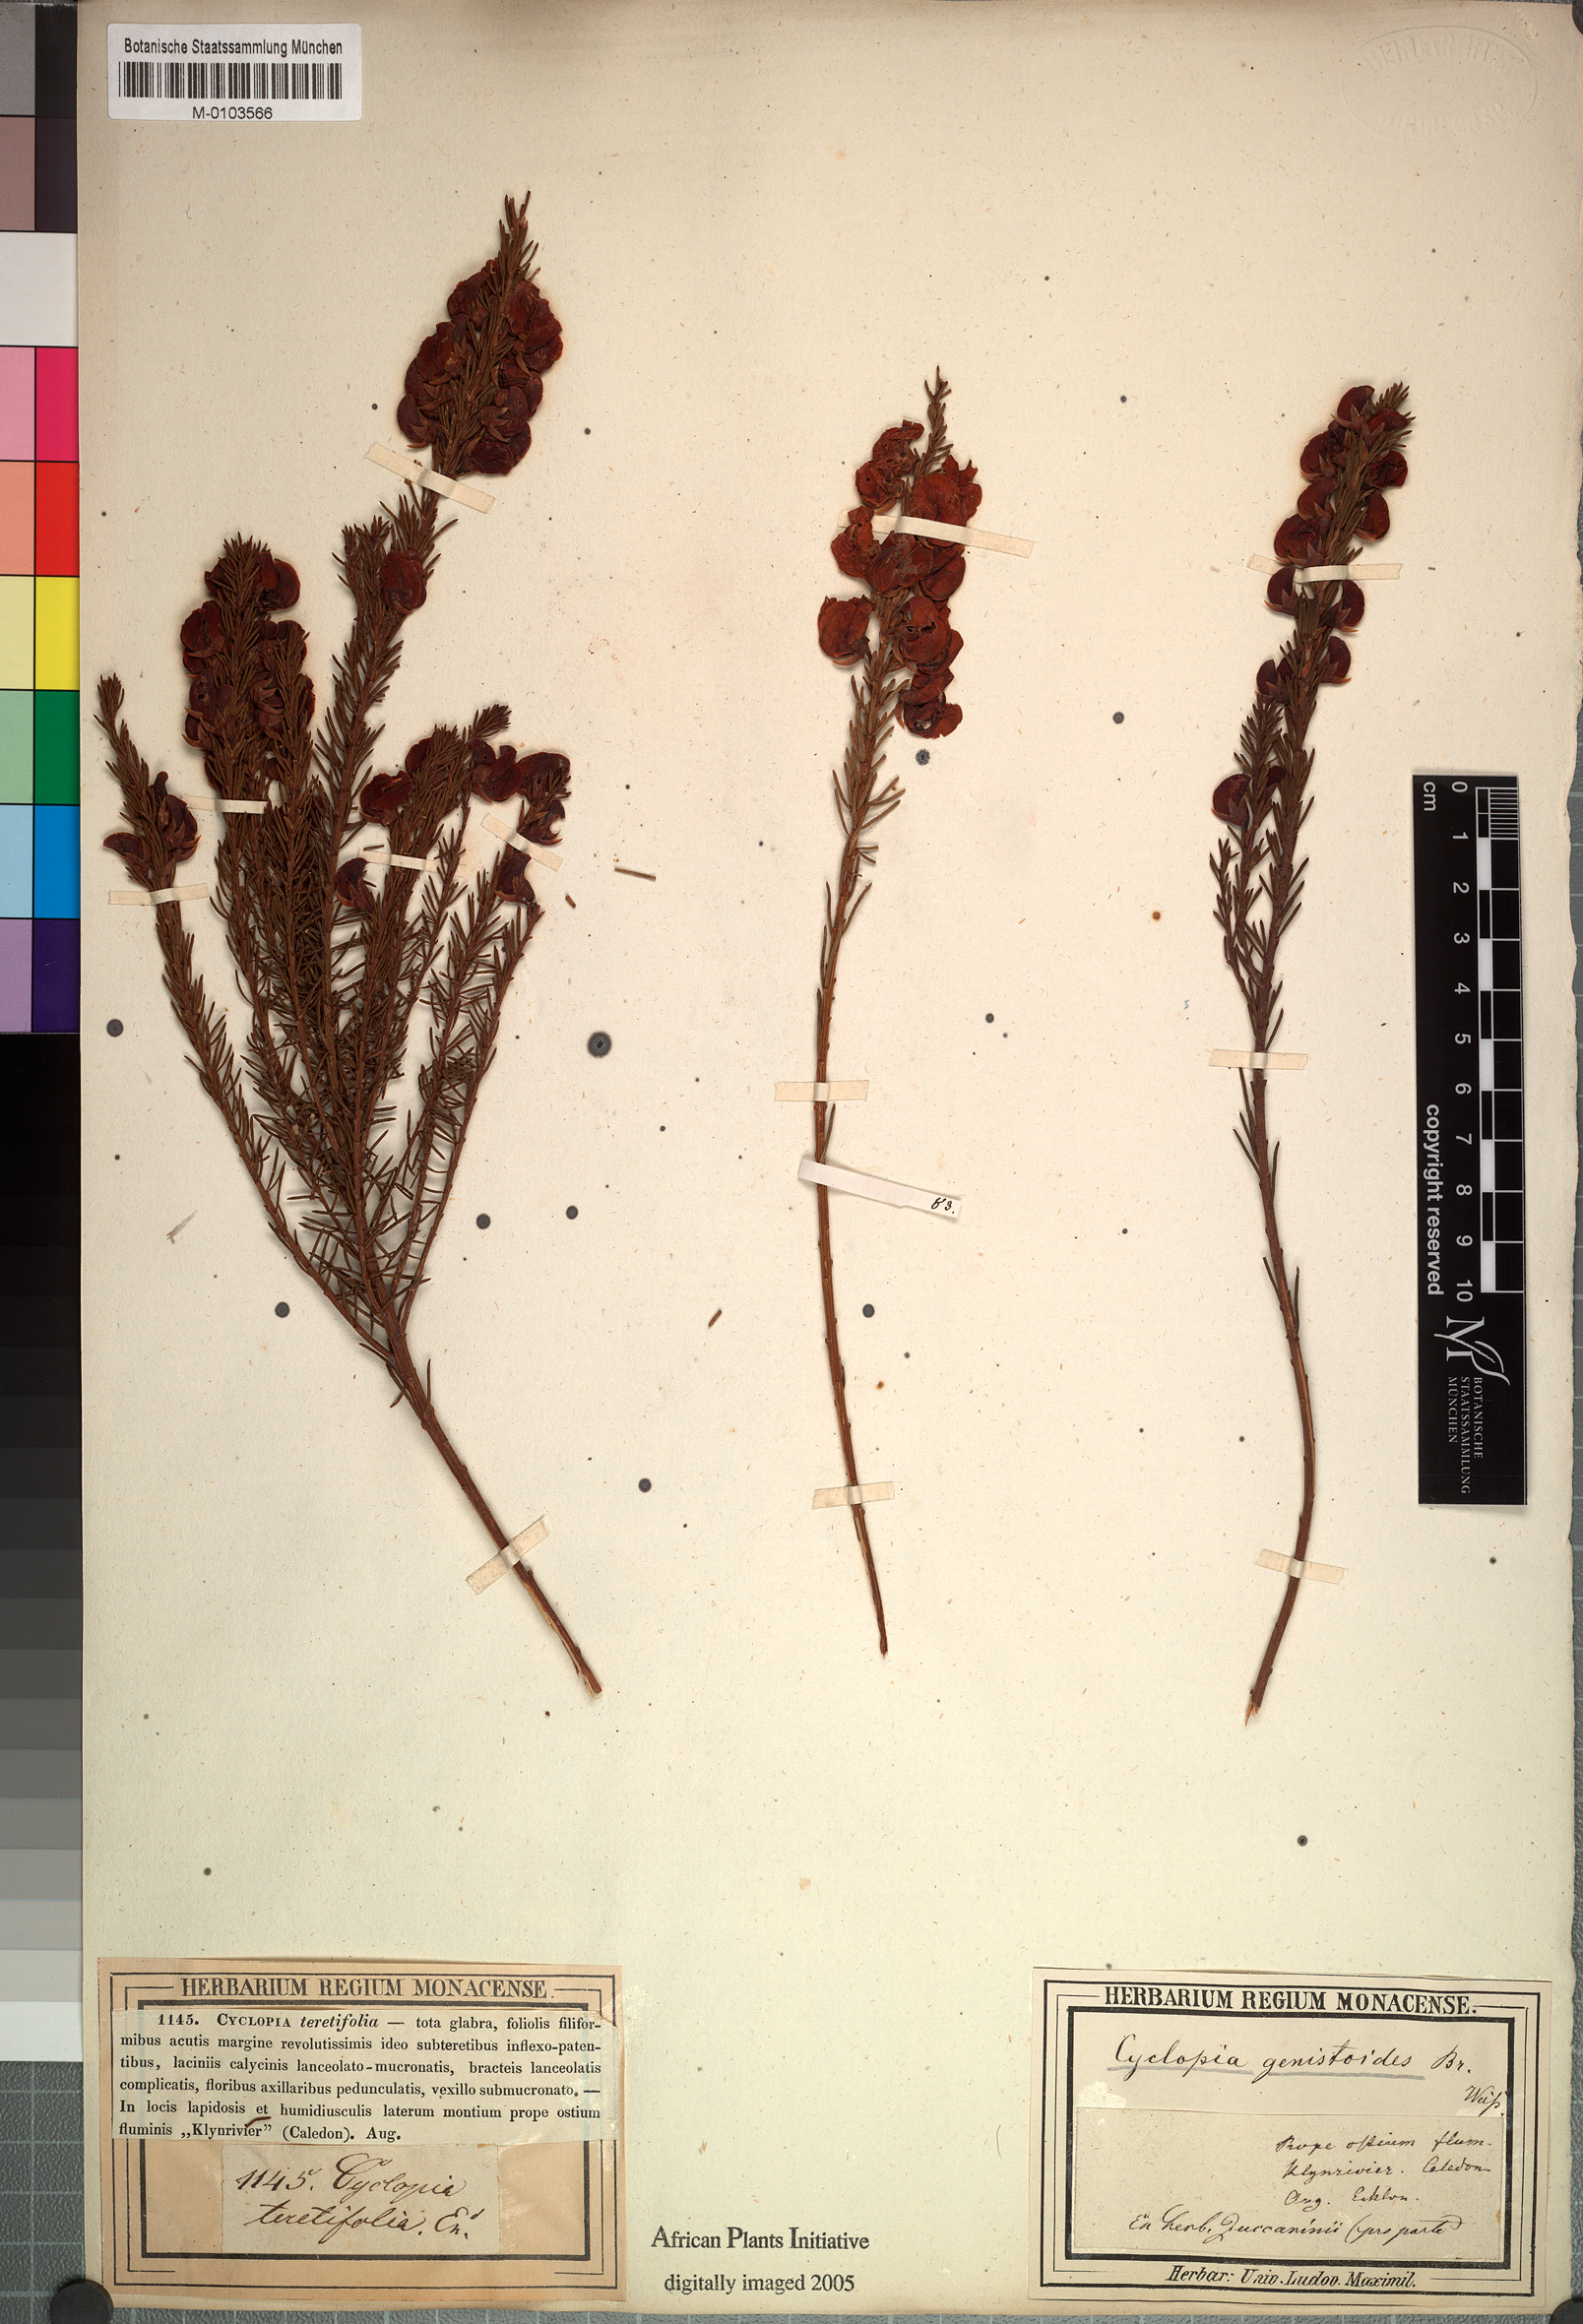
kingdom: Plantae
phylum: Tracheophyta
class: Magnoliopsida
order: Fabales
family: Fabaceae
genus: Cyclopia
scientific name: Cyclopia genistoides
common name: Honeybush tea
